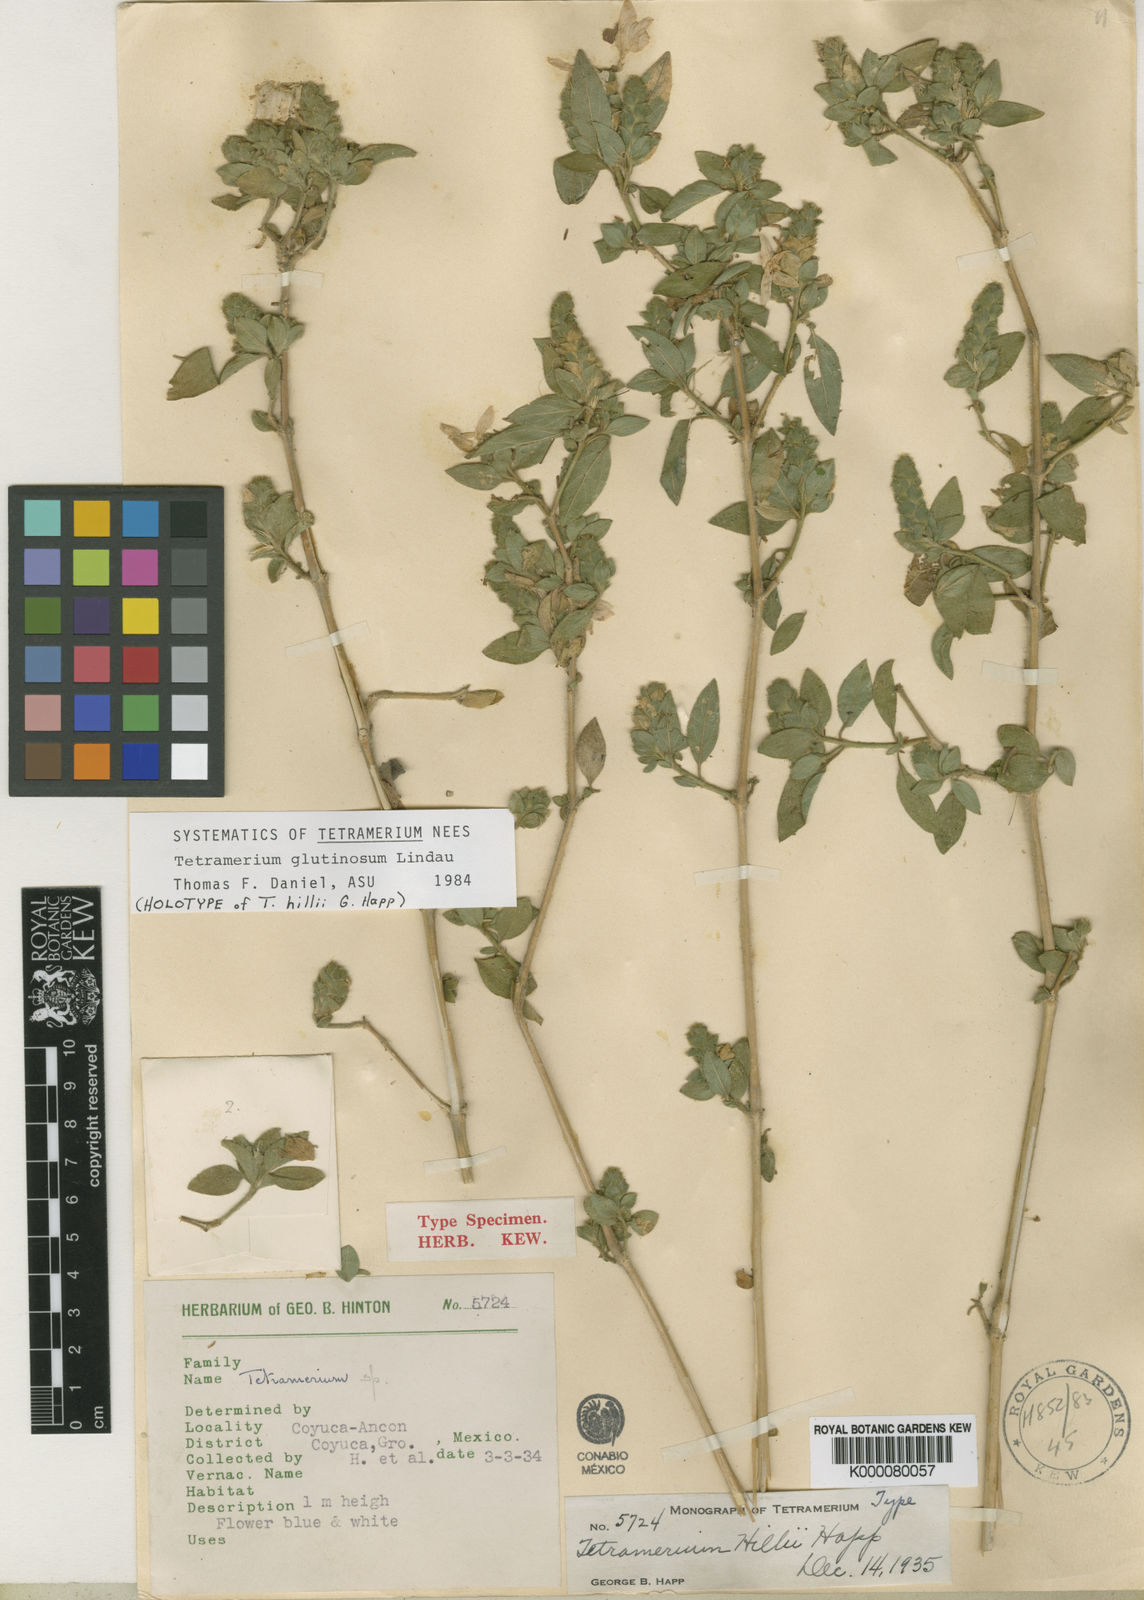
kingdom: Plantae
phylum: Tracheophyta
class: Magnoliopsida
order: Lamiales
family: Acanthaceae
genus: Tetramerium
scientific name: Tetramerium
